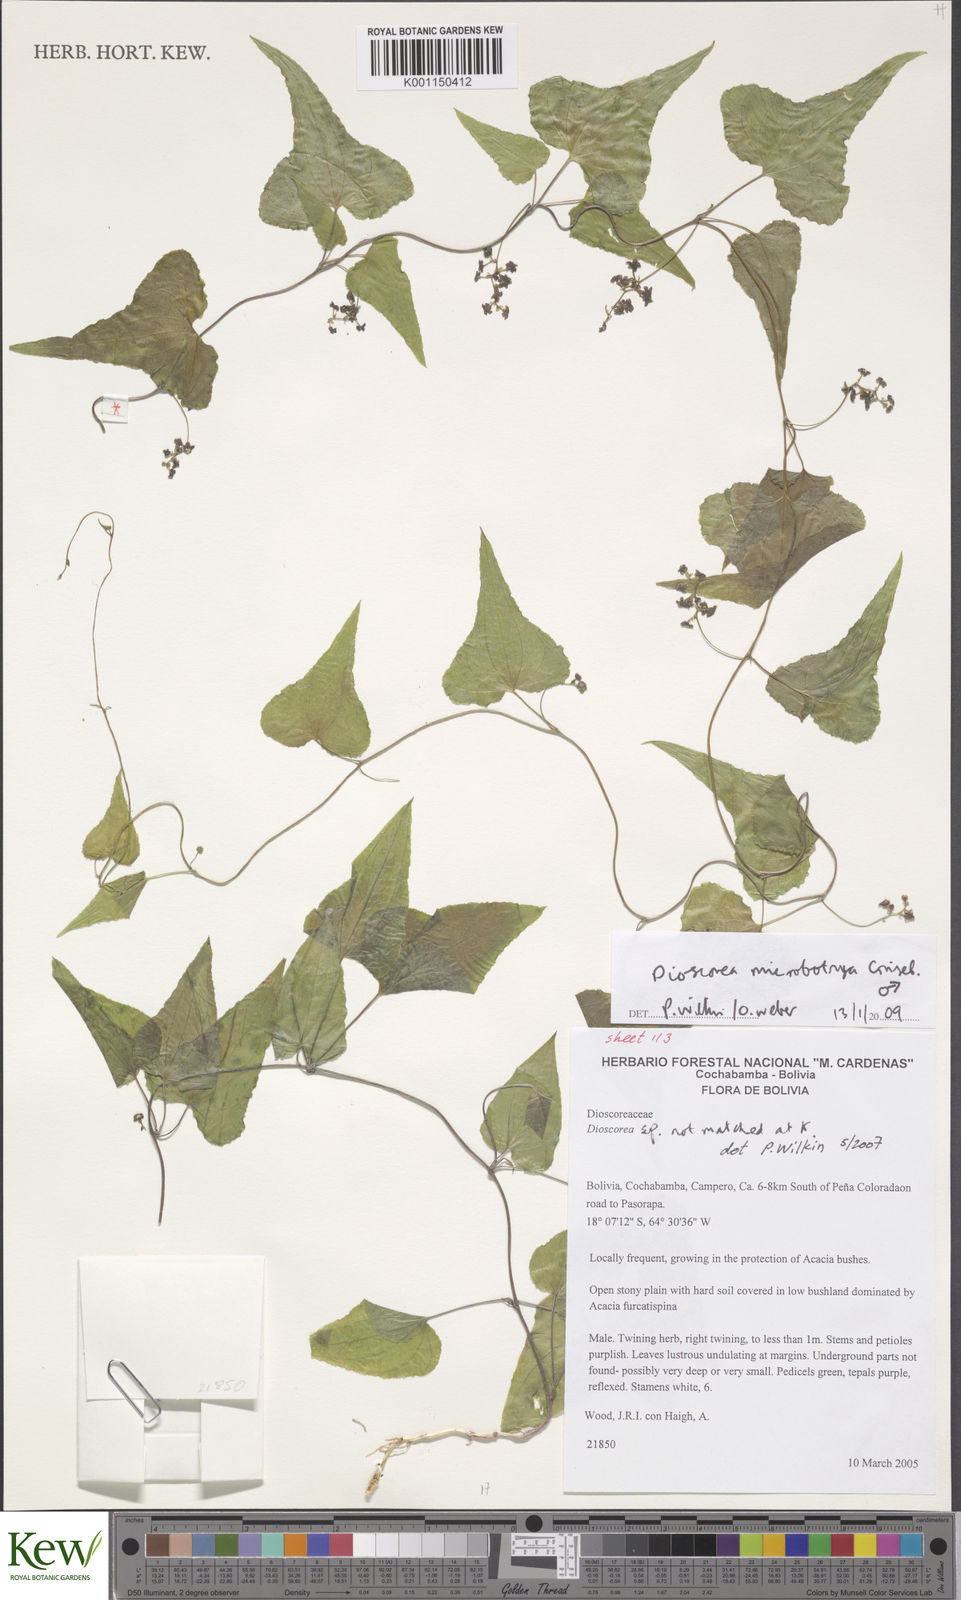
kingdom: Plantae
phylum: Tracheophyta
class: Liliopsida
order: Dioscoreales
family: Dioscoreaceae
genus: Dioscorea
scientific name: Dioscorea microbotrya
